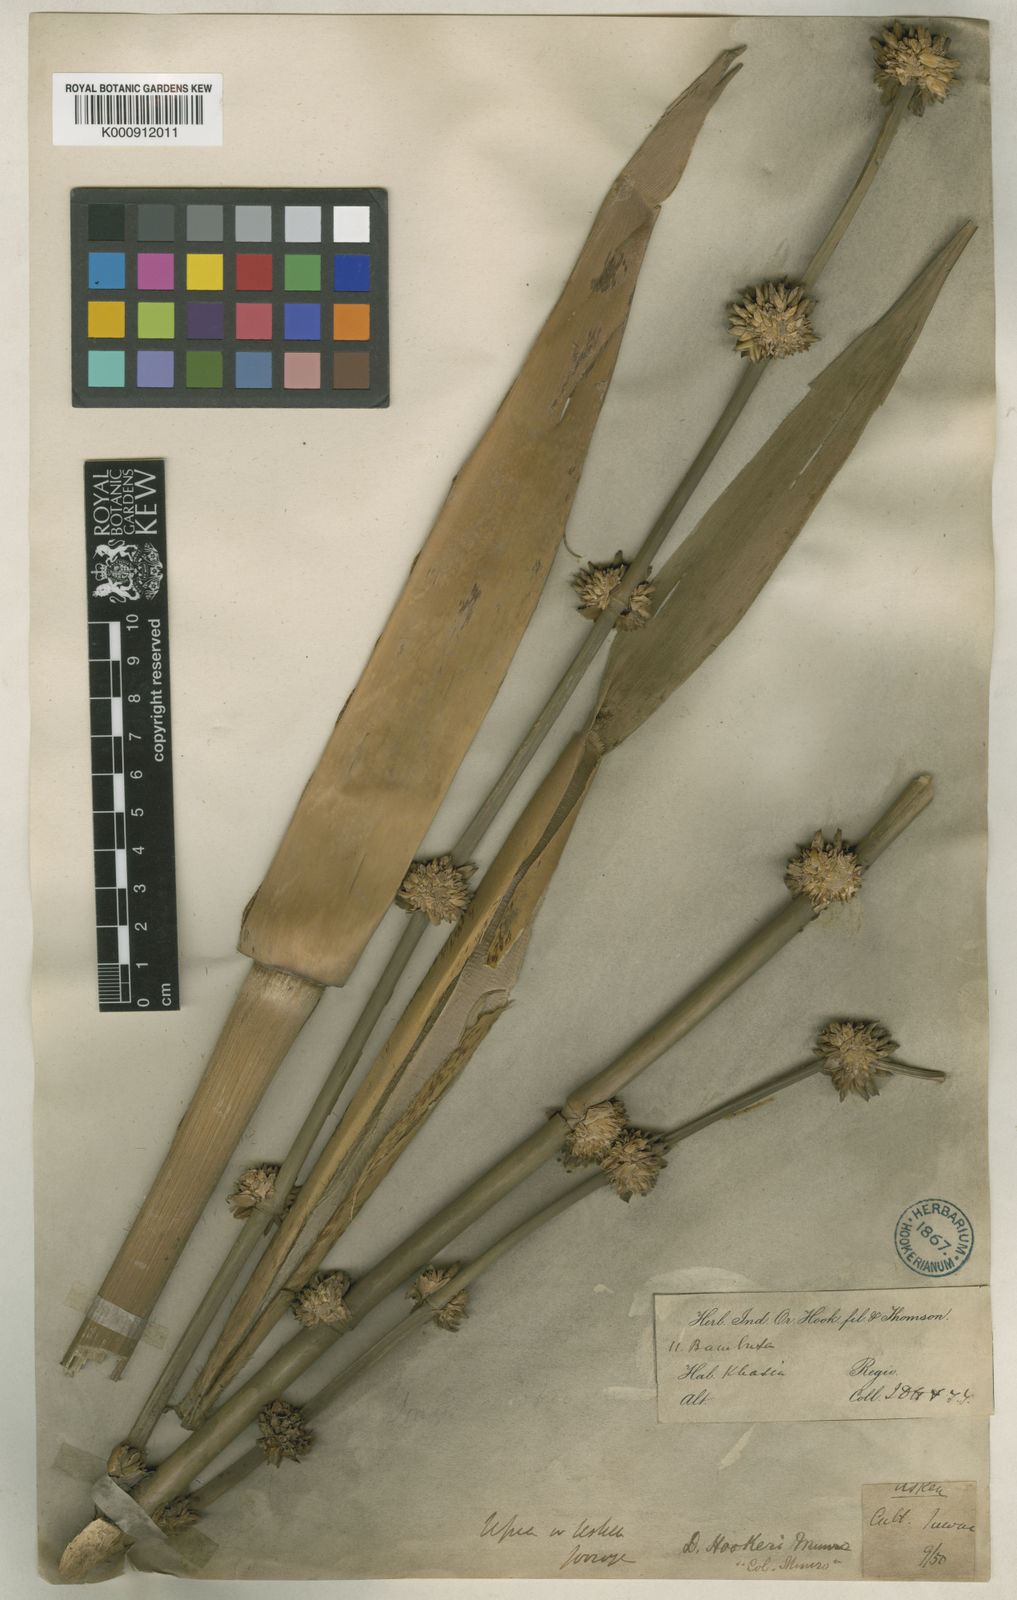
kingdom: Plantae
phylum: Tracheophyta
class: Liliopsida
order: Poales
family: Poaceae
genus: Dendrocalamus
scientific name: Dendrocalamus hookeri
